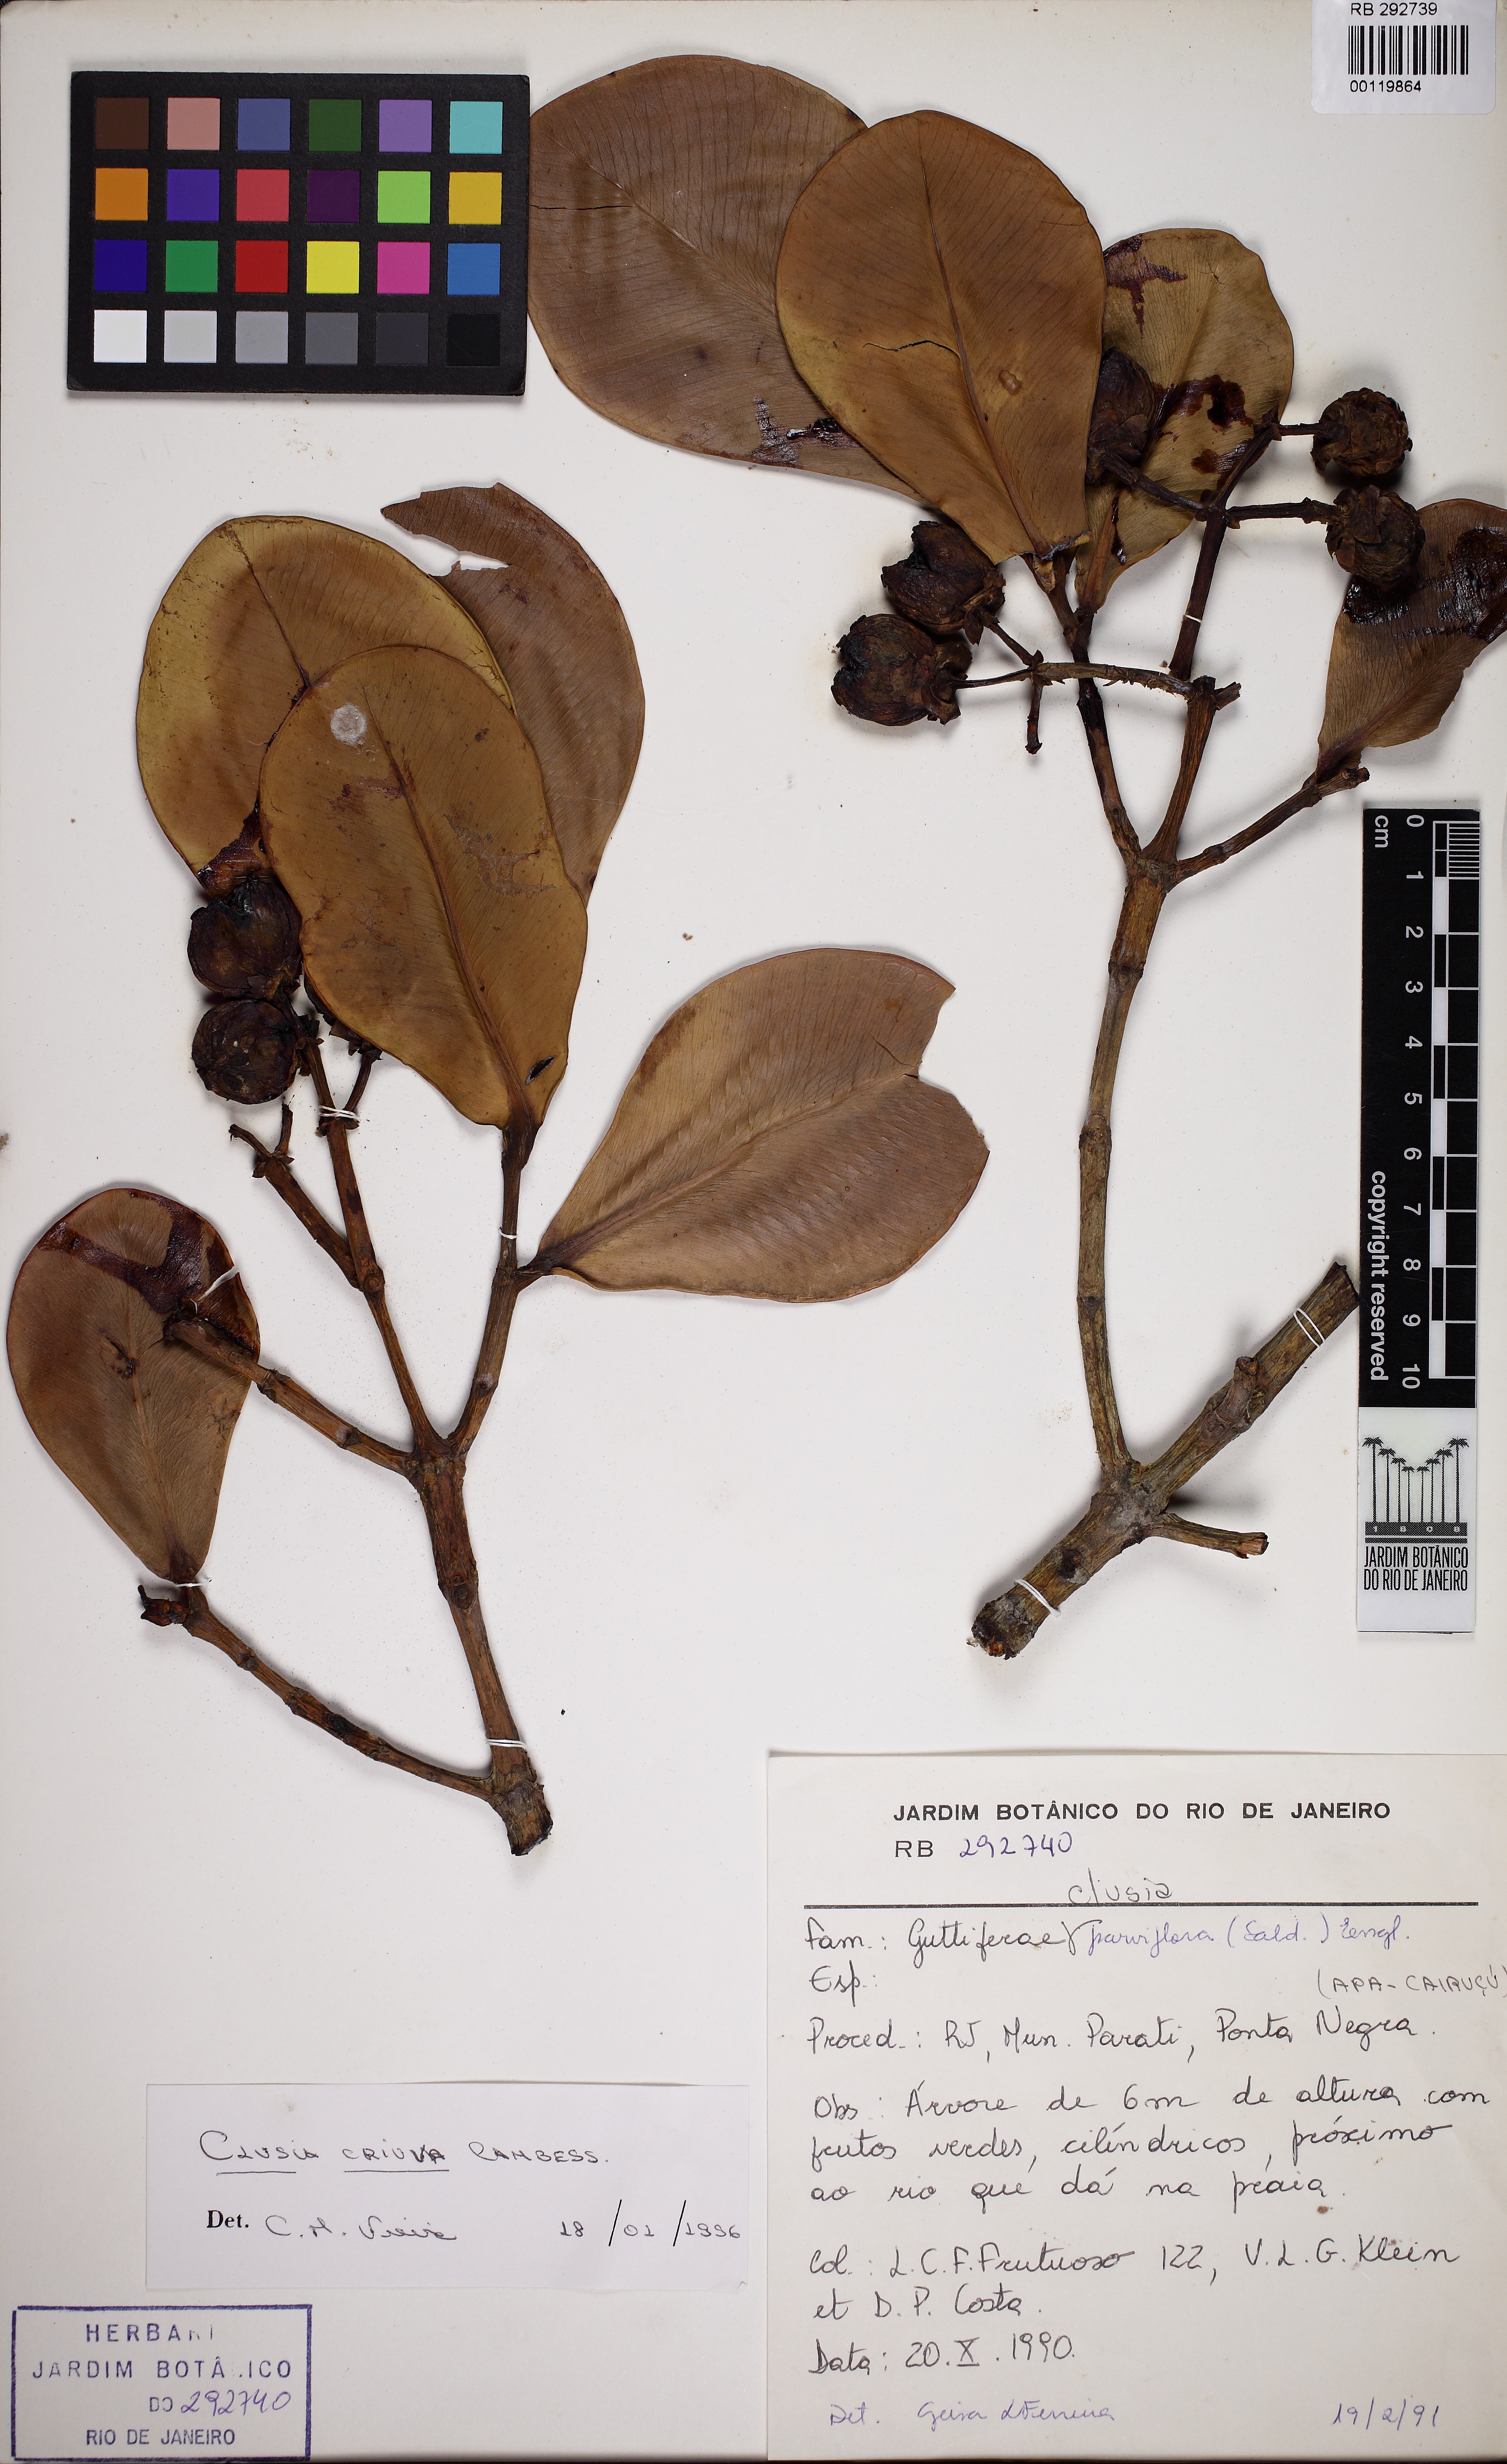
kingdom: Plantae
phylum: Tracheophyta
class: Magnoliopsida
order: Malpighiales
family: Clusiaceae
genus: Clusia
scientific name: Clusia criuva
